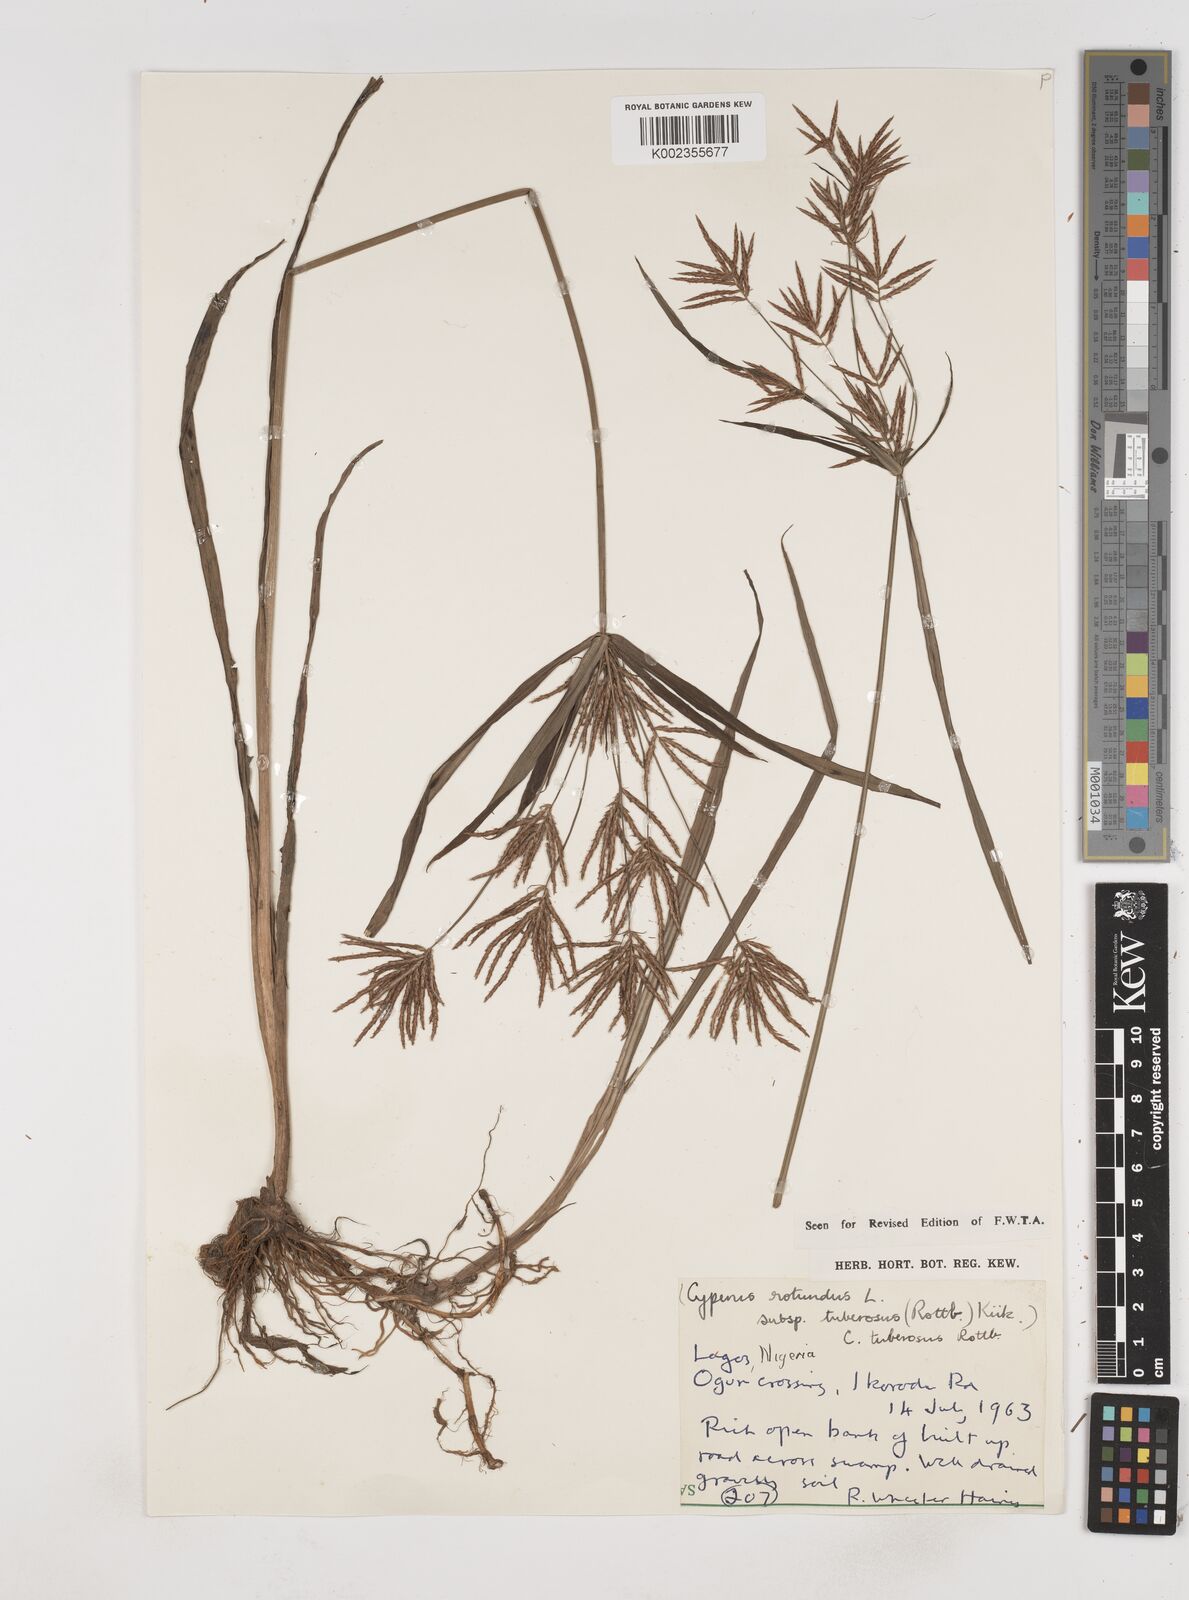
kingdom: Plantae
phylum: Tracheophyta
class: Liliopsida
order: Poales
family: Cyperaceae
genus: Cyperus
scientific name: Cyperus tuberosus
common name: Nut grass
